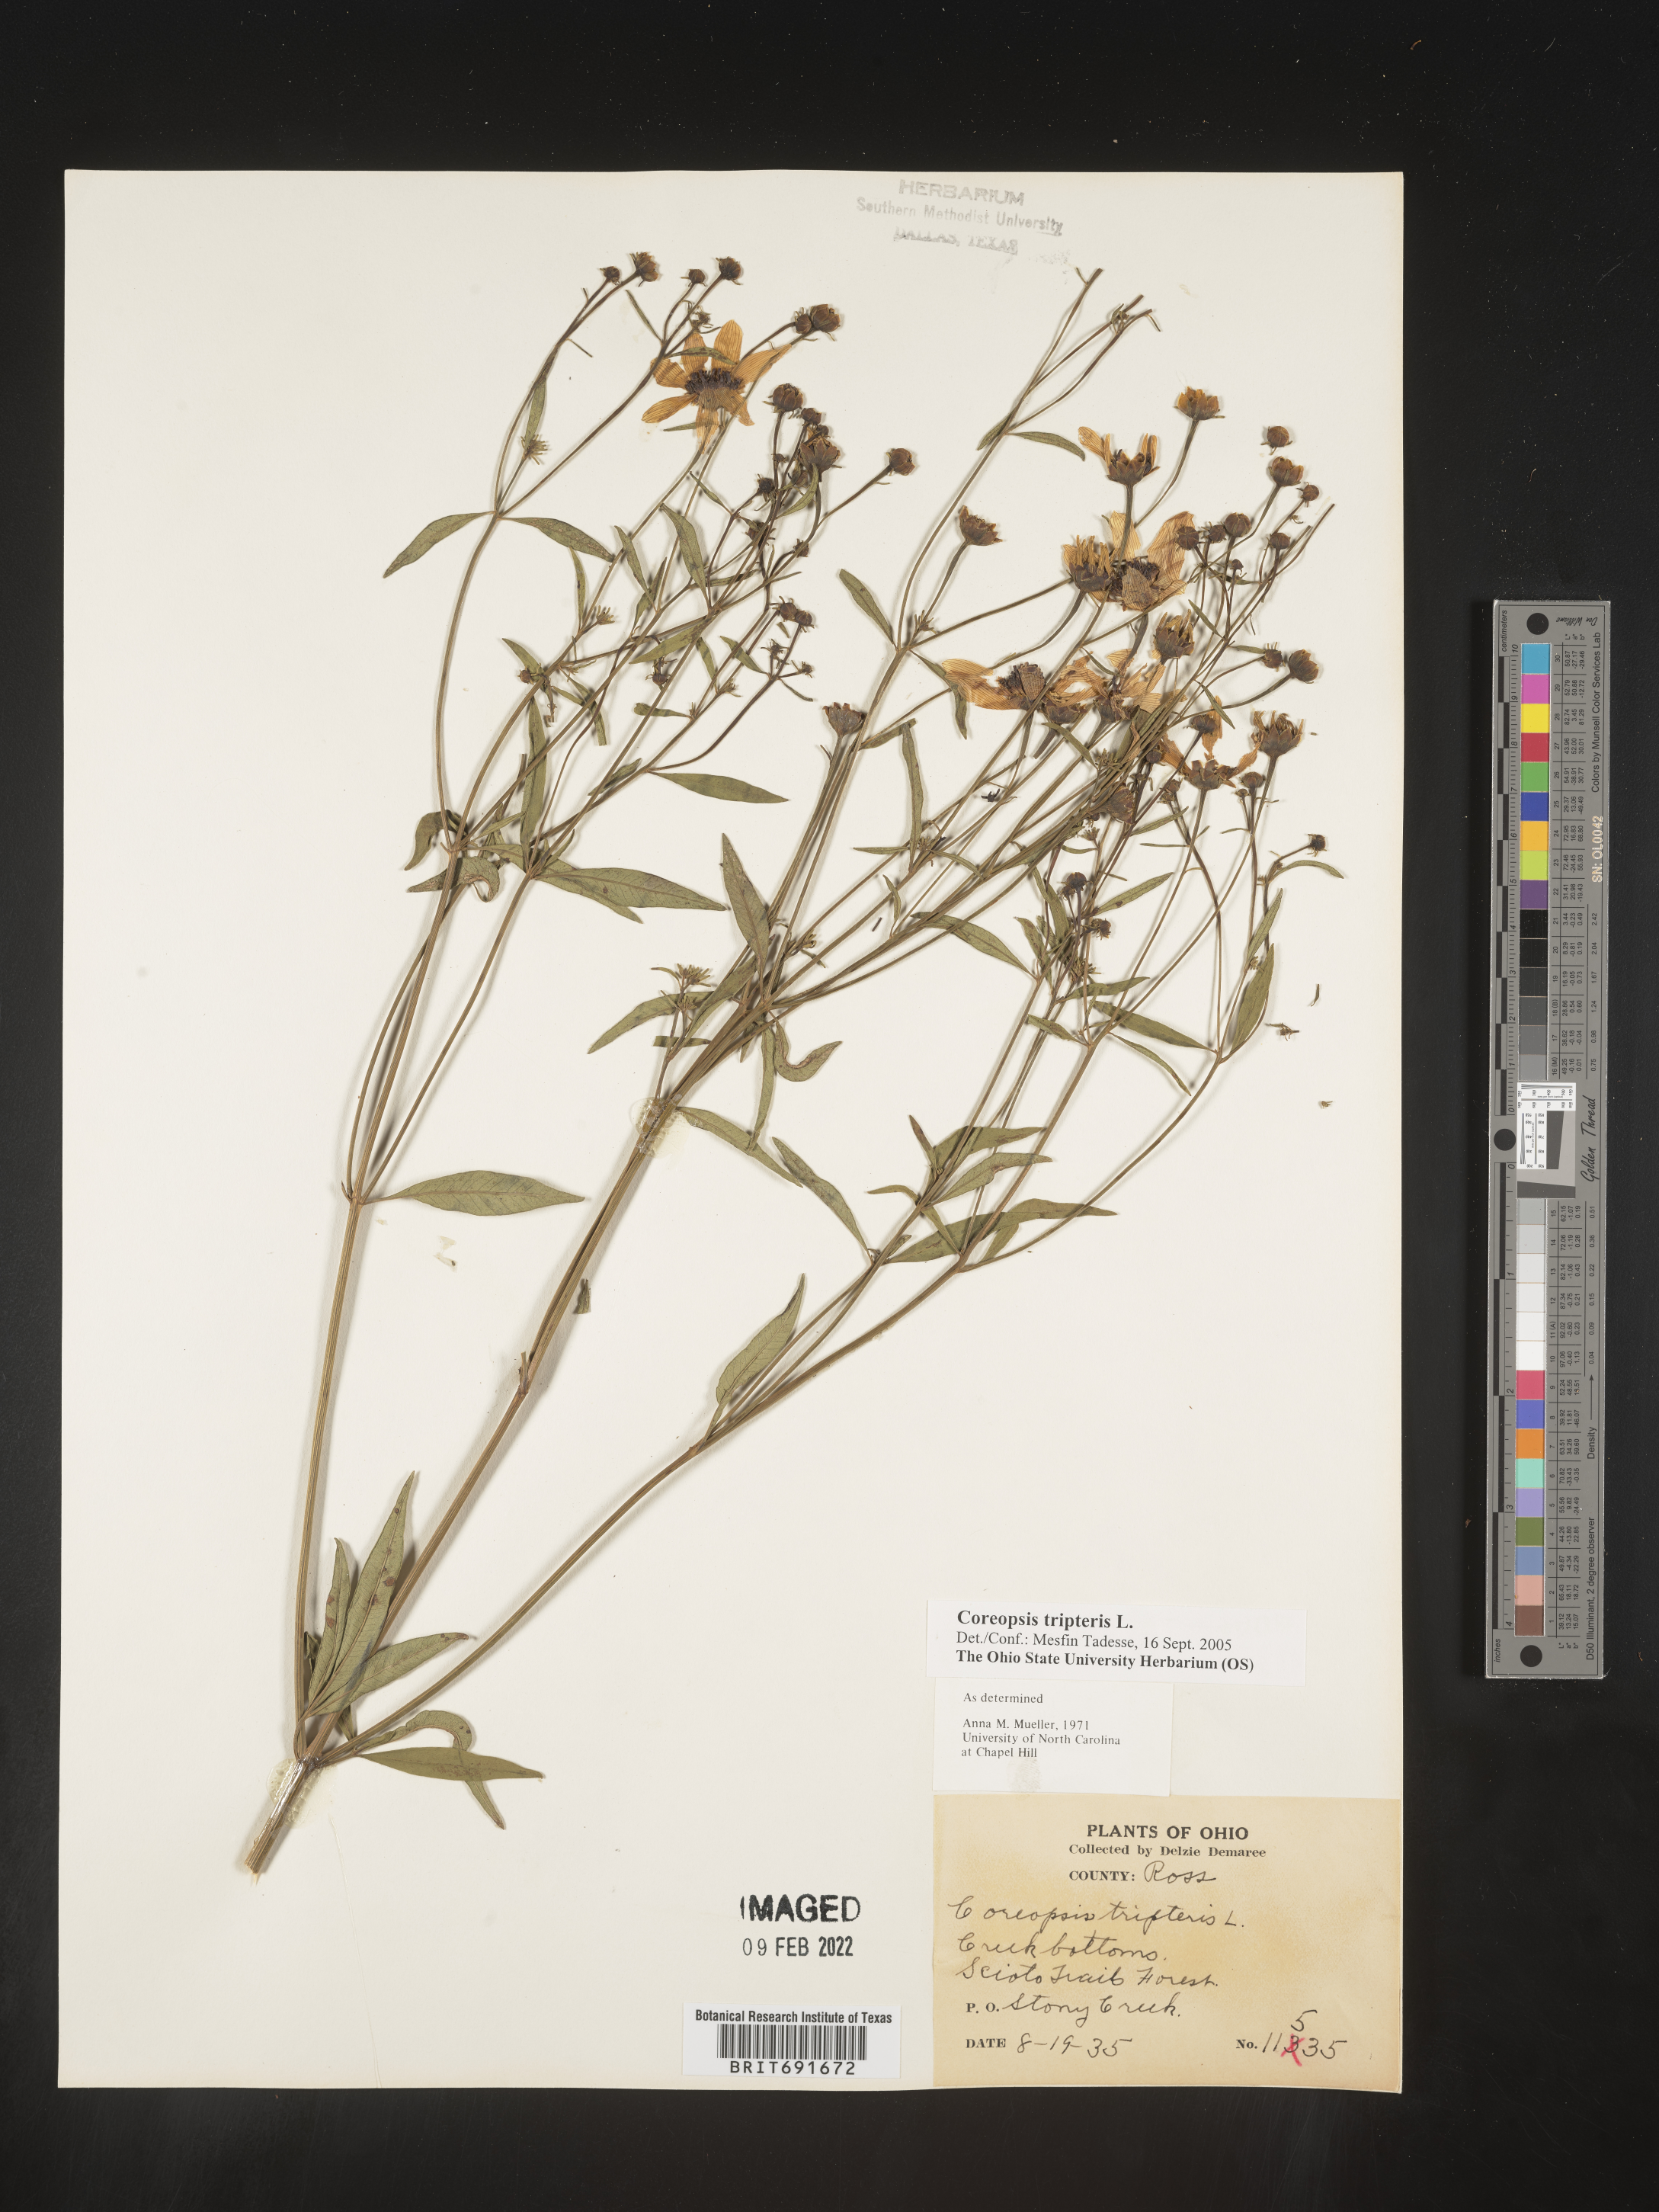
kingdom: Plantae
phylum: Tracheophyta
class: Magnoliopsida
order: Asterales
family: Asteraceae
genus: Coreopsis
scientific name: Coreopsis tripteris
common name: Tall coreopsis
